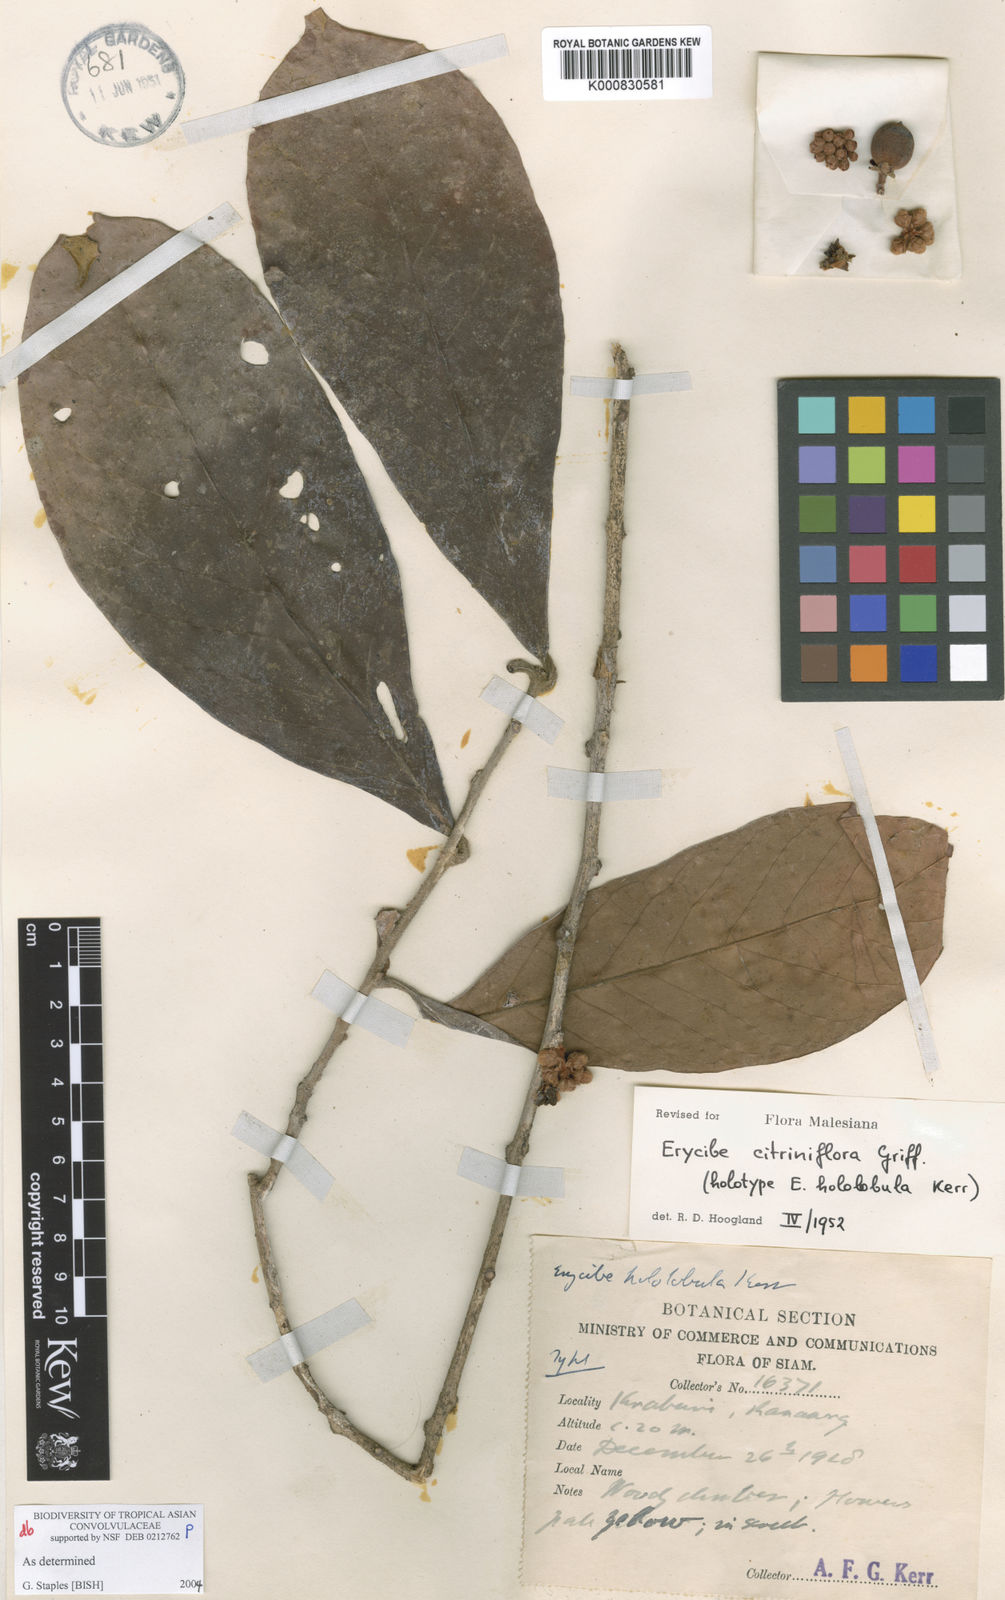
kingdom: Plantae
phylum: Tracheophyta
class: Magnoliopsida
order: Solanales
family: Convolvulaceae
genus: Erycibe
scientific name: Erycibe citriniflora
